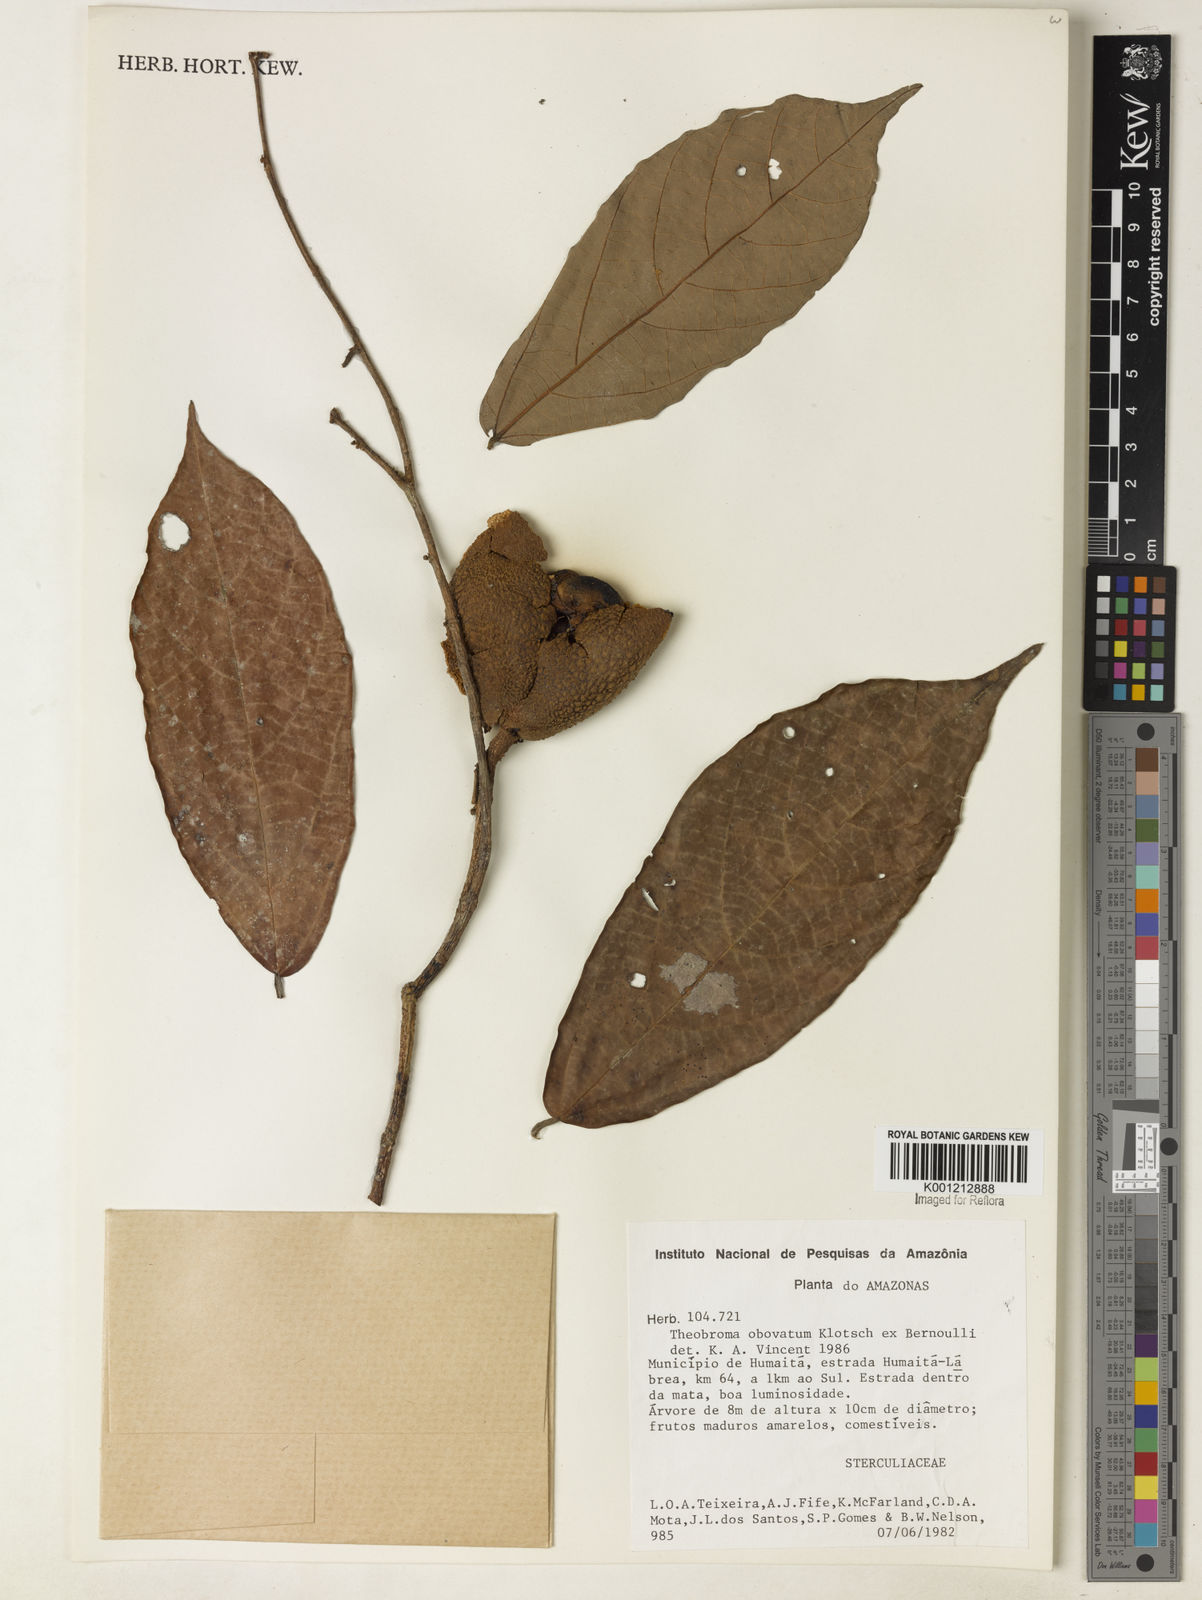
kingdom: Plantae
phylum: Tracheophyta
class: Magnoliopsida
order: Malvales
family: Malvaceae
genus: Theobroma
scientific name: Theobroma obovatum
